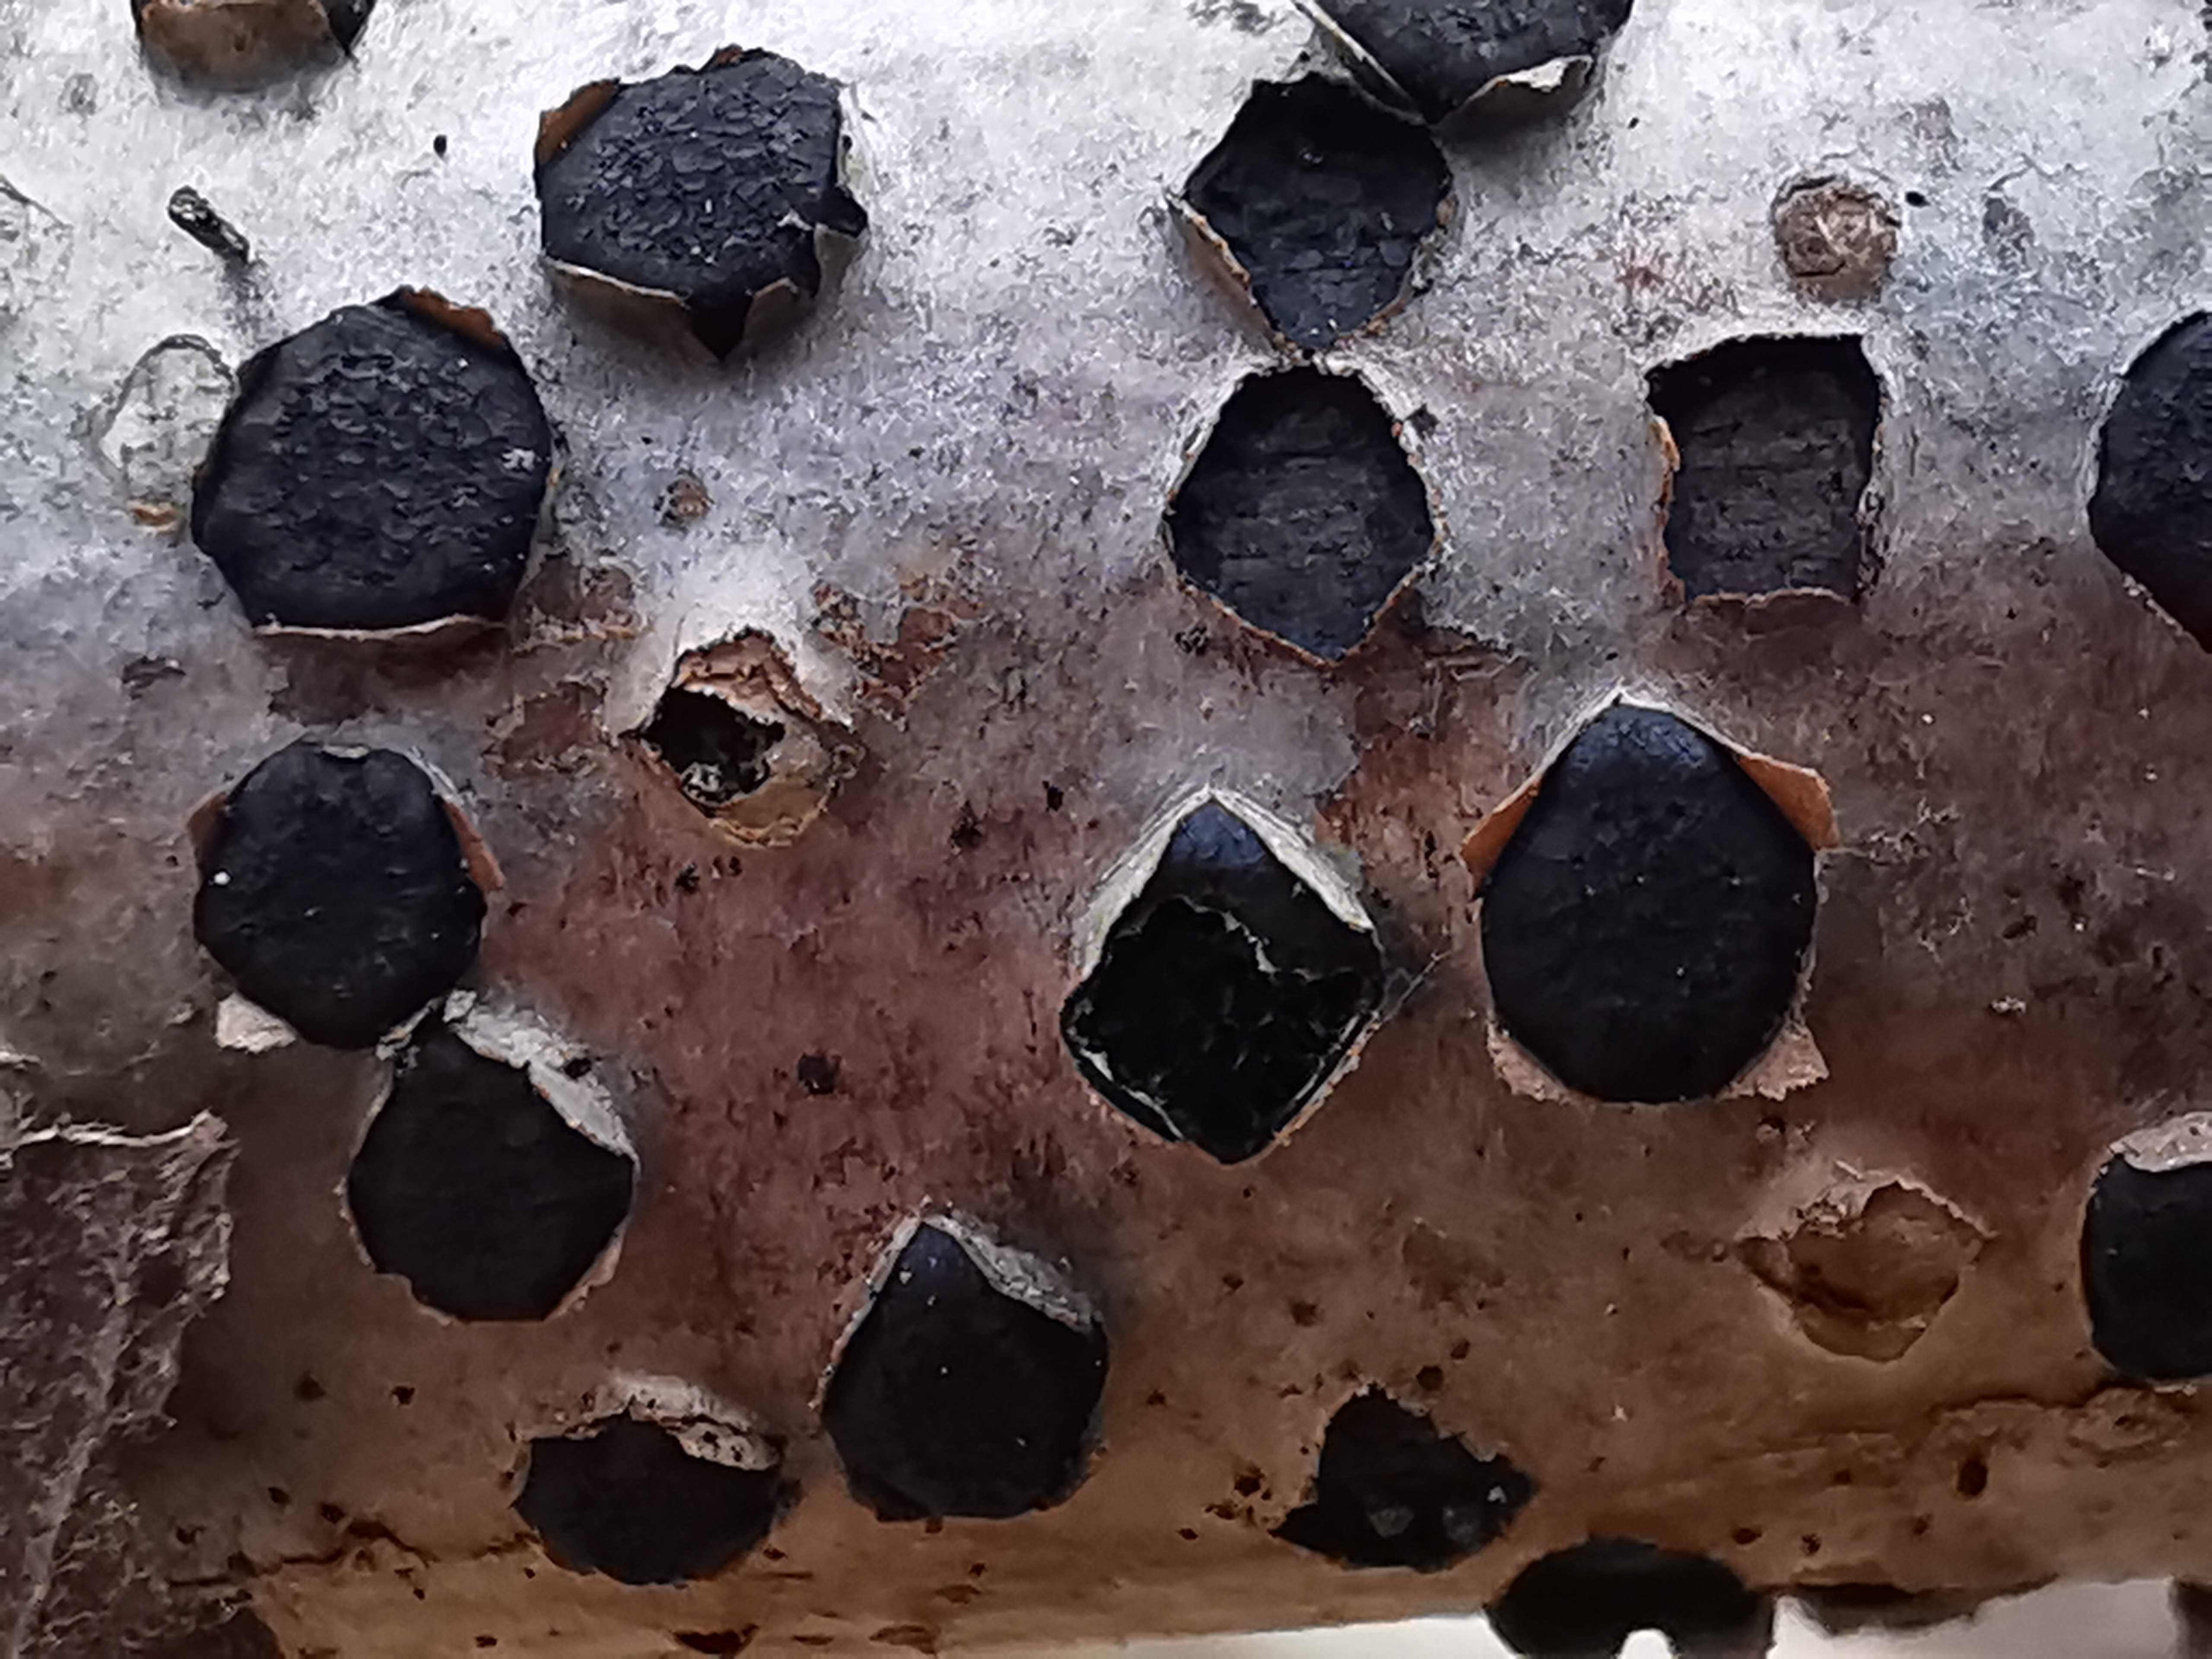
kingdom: Fungi
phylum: Ascomycota
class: Sordariomycetes
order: Sordariales
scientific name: Sordariales
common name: kernesvampordenen
